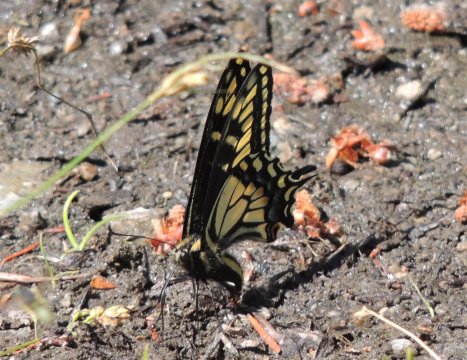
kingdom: Animalia
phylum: Arthropoda
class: Insecta
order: Lepidoptera
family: Papilionidae
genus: Papilio
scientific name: Papilio zelicaon
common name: Anise Swallowtail
